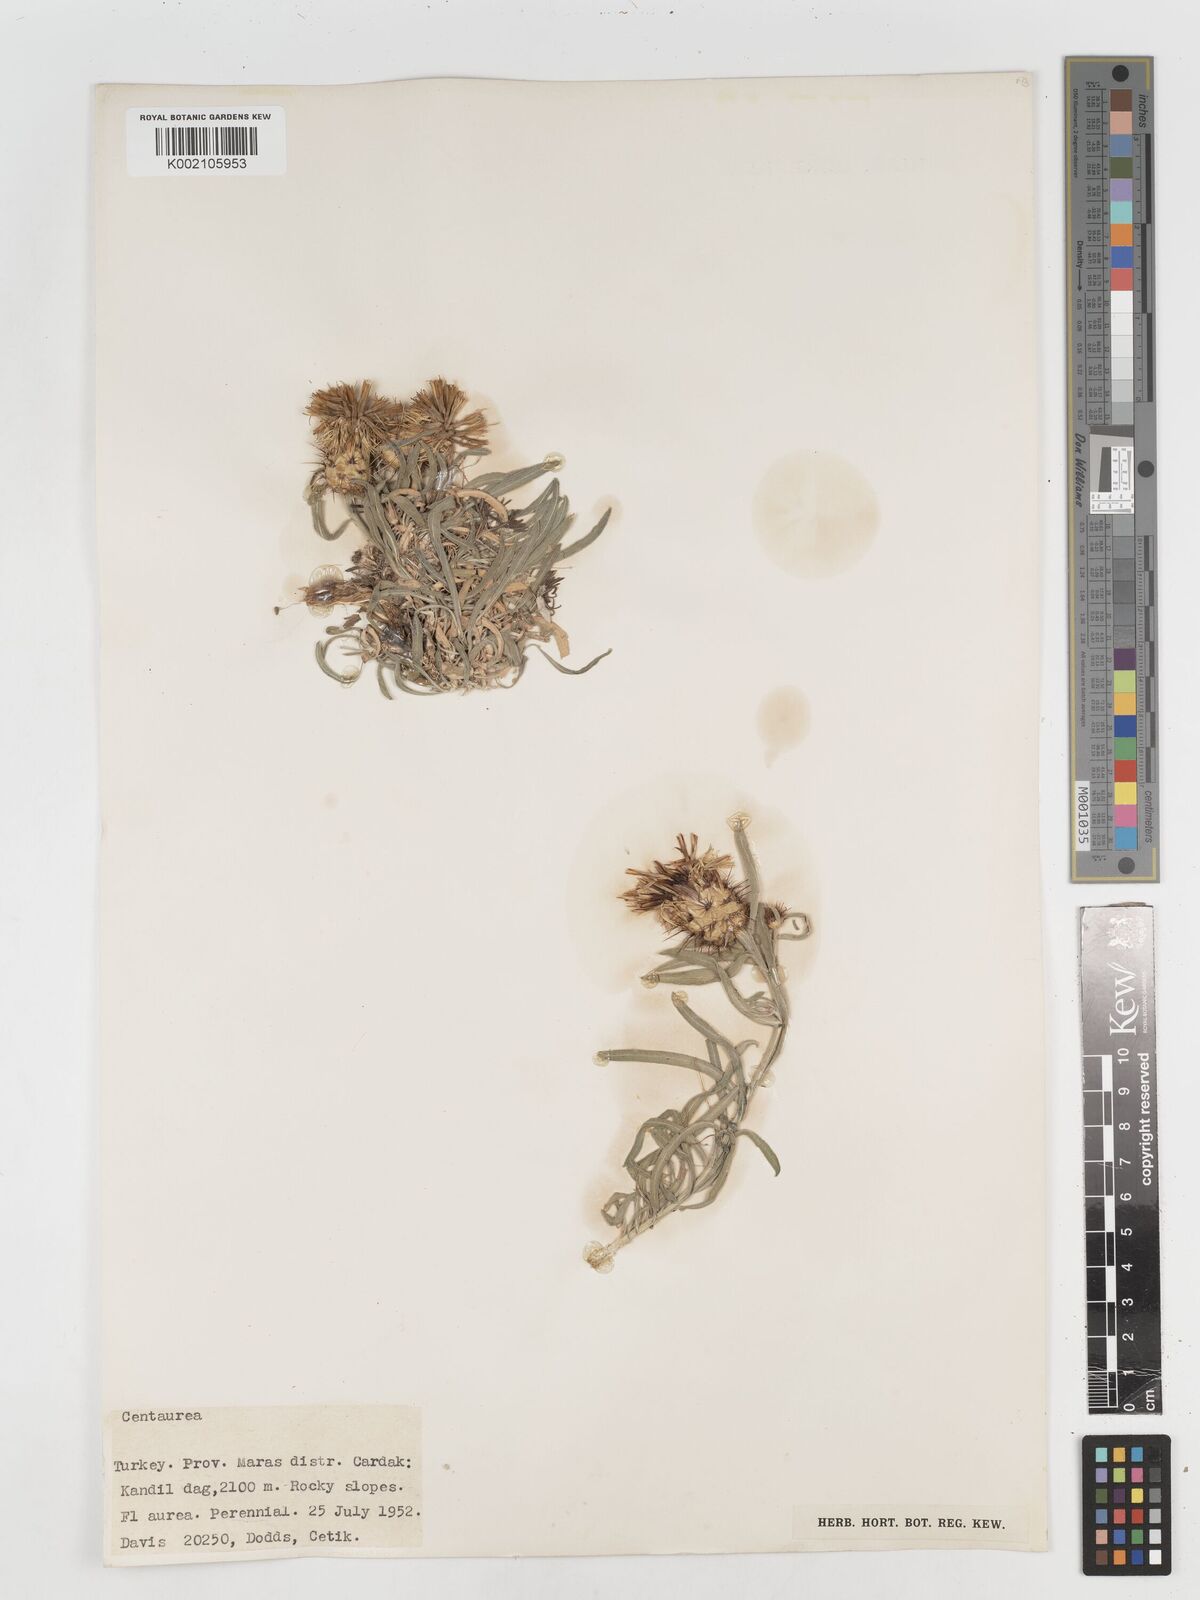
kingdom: Plantae
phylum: Tracheophyta
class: Magnoliopsida
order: Asterales
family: Asteraceae
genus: Centaurea
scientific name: Centaurea
